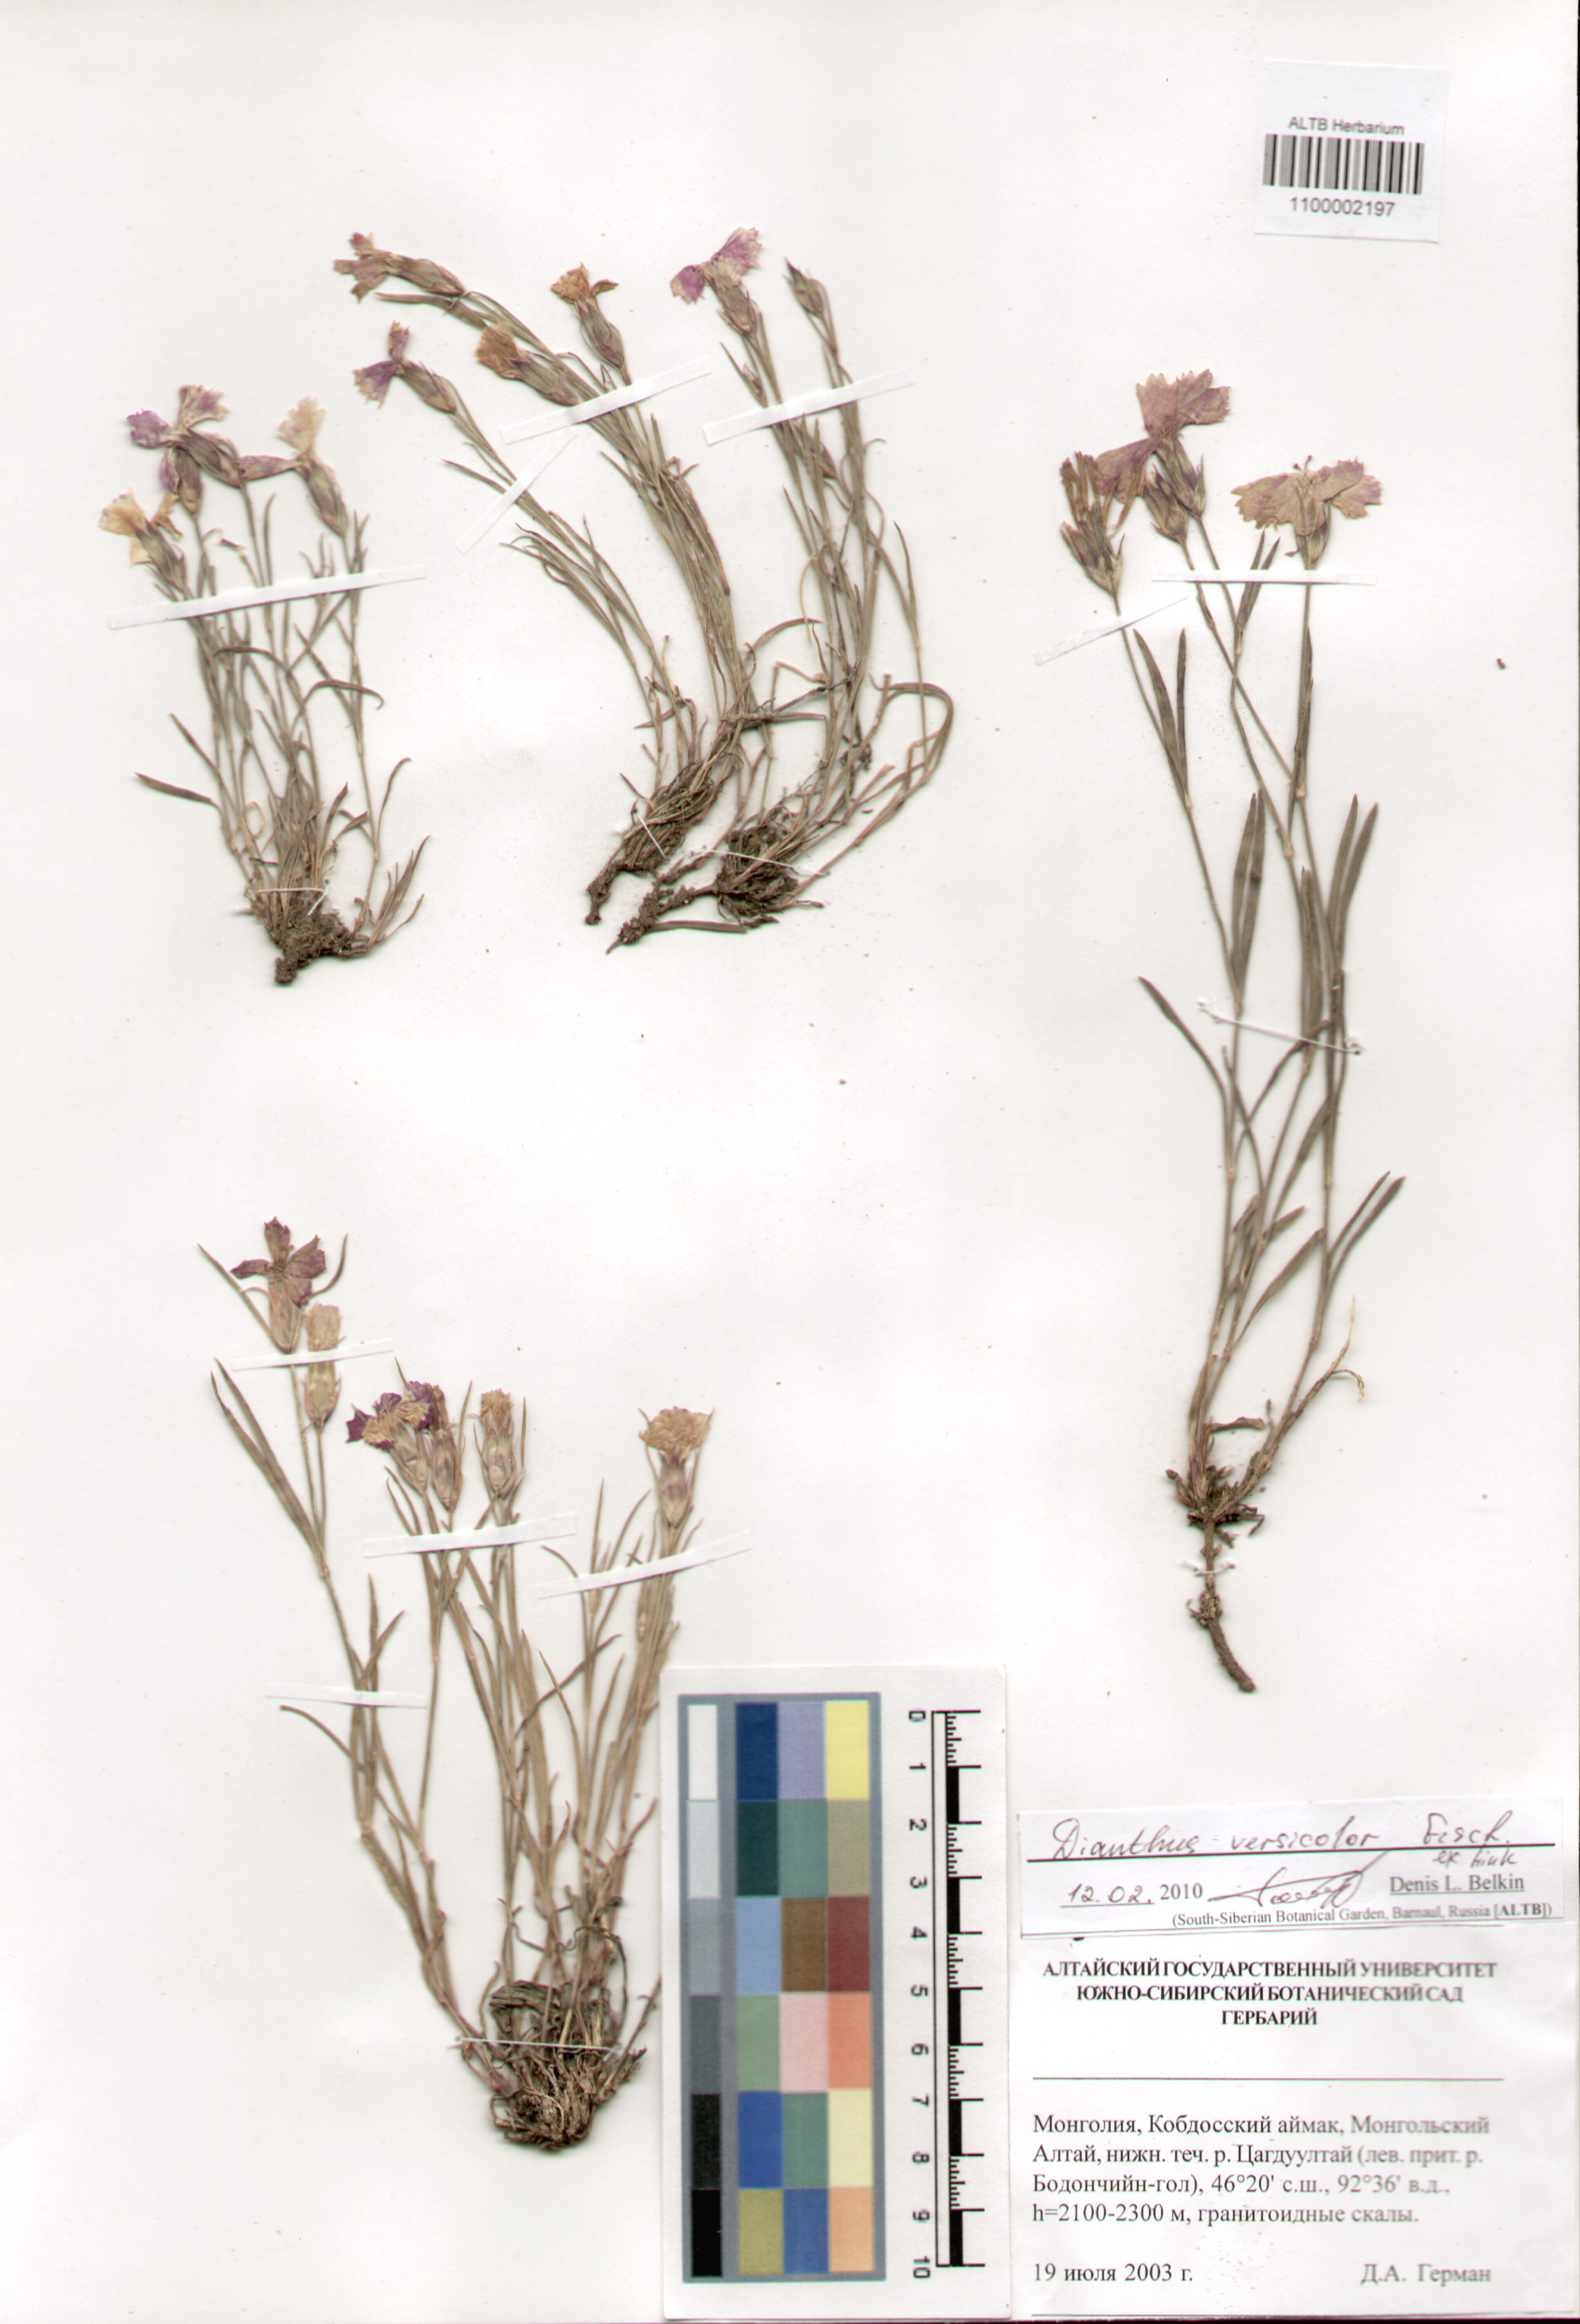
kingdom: Plantae
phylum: Tracheophyta
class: Magnoliopsida
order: Caryophyllales
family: Caryophyllaceae
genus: Dianthus
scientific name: Dianthus chinensis
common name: Rainbow pink
